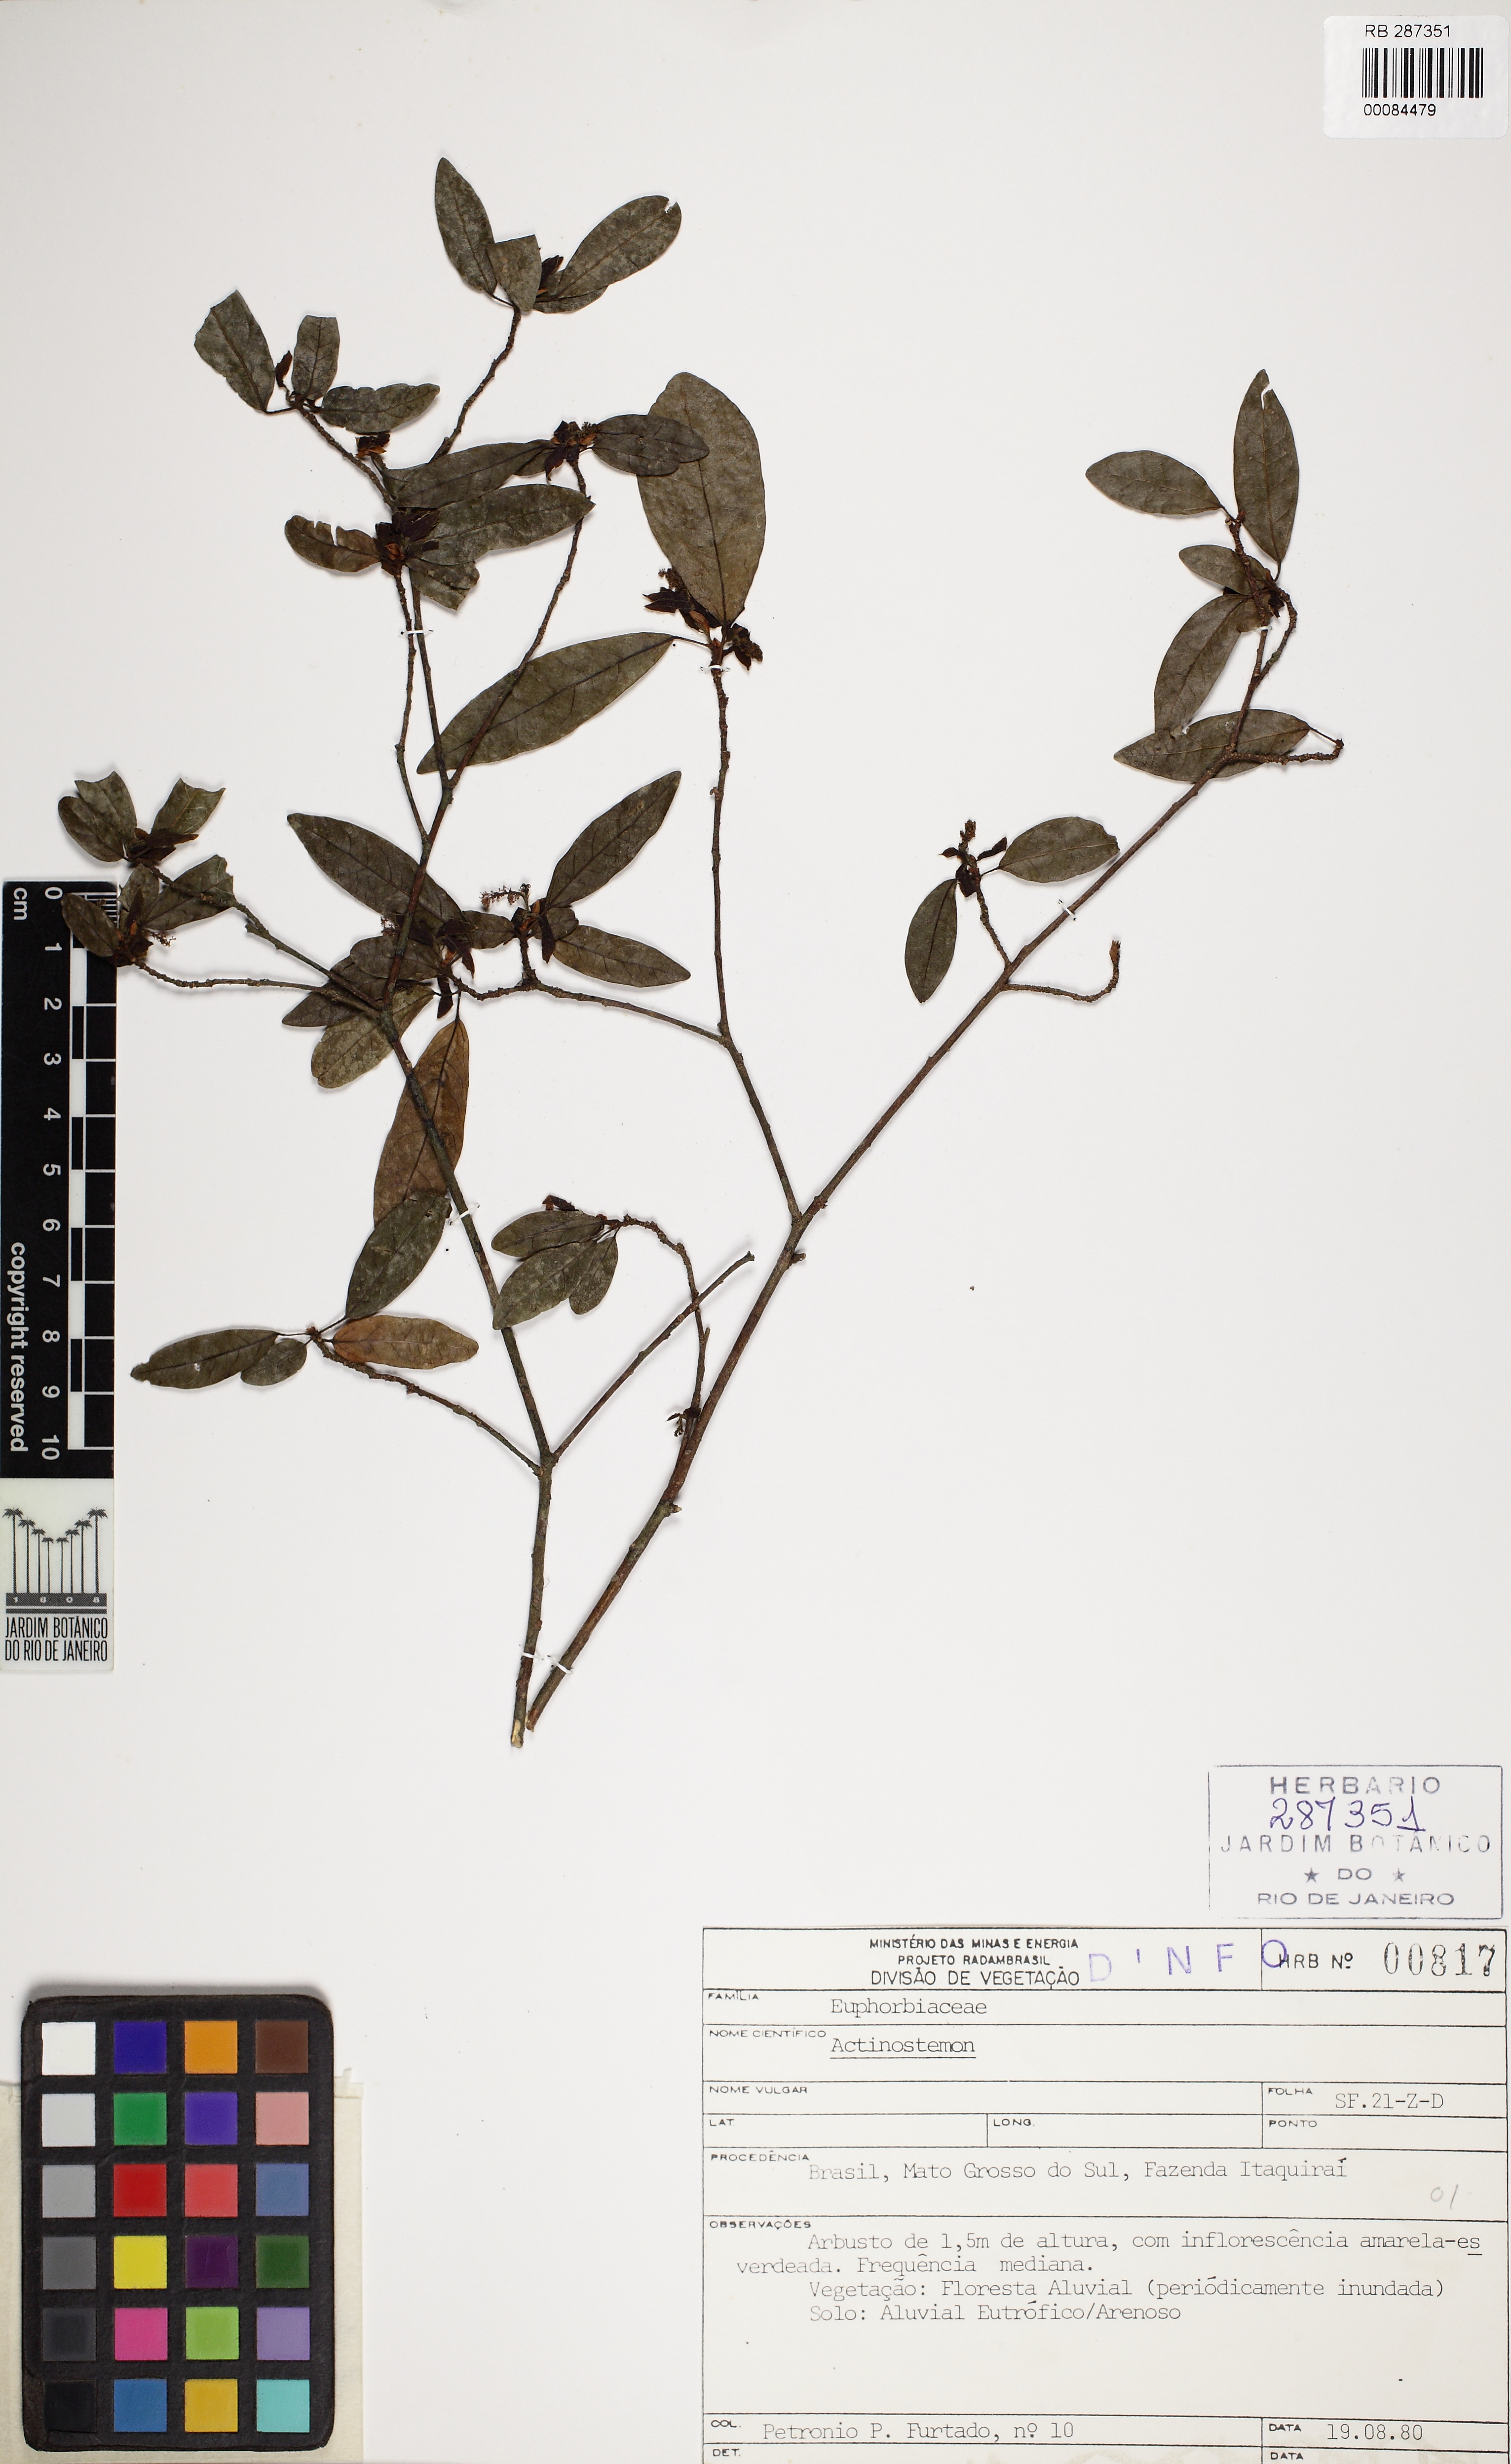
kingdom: Plantae
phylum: Tracheophyta
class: Magnoliopsida
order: Malpighiales
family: Euphorbiaceae
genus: Actinostemon
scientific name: Actinostemon
